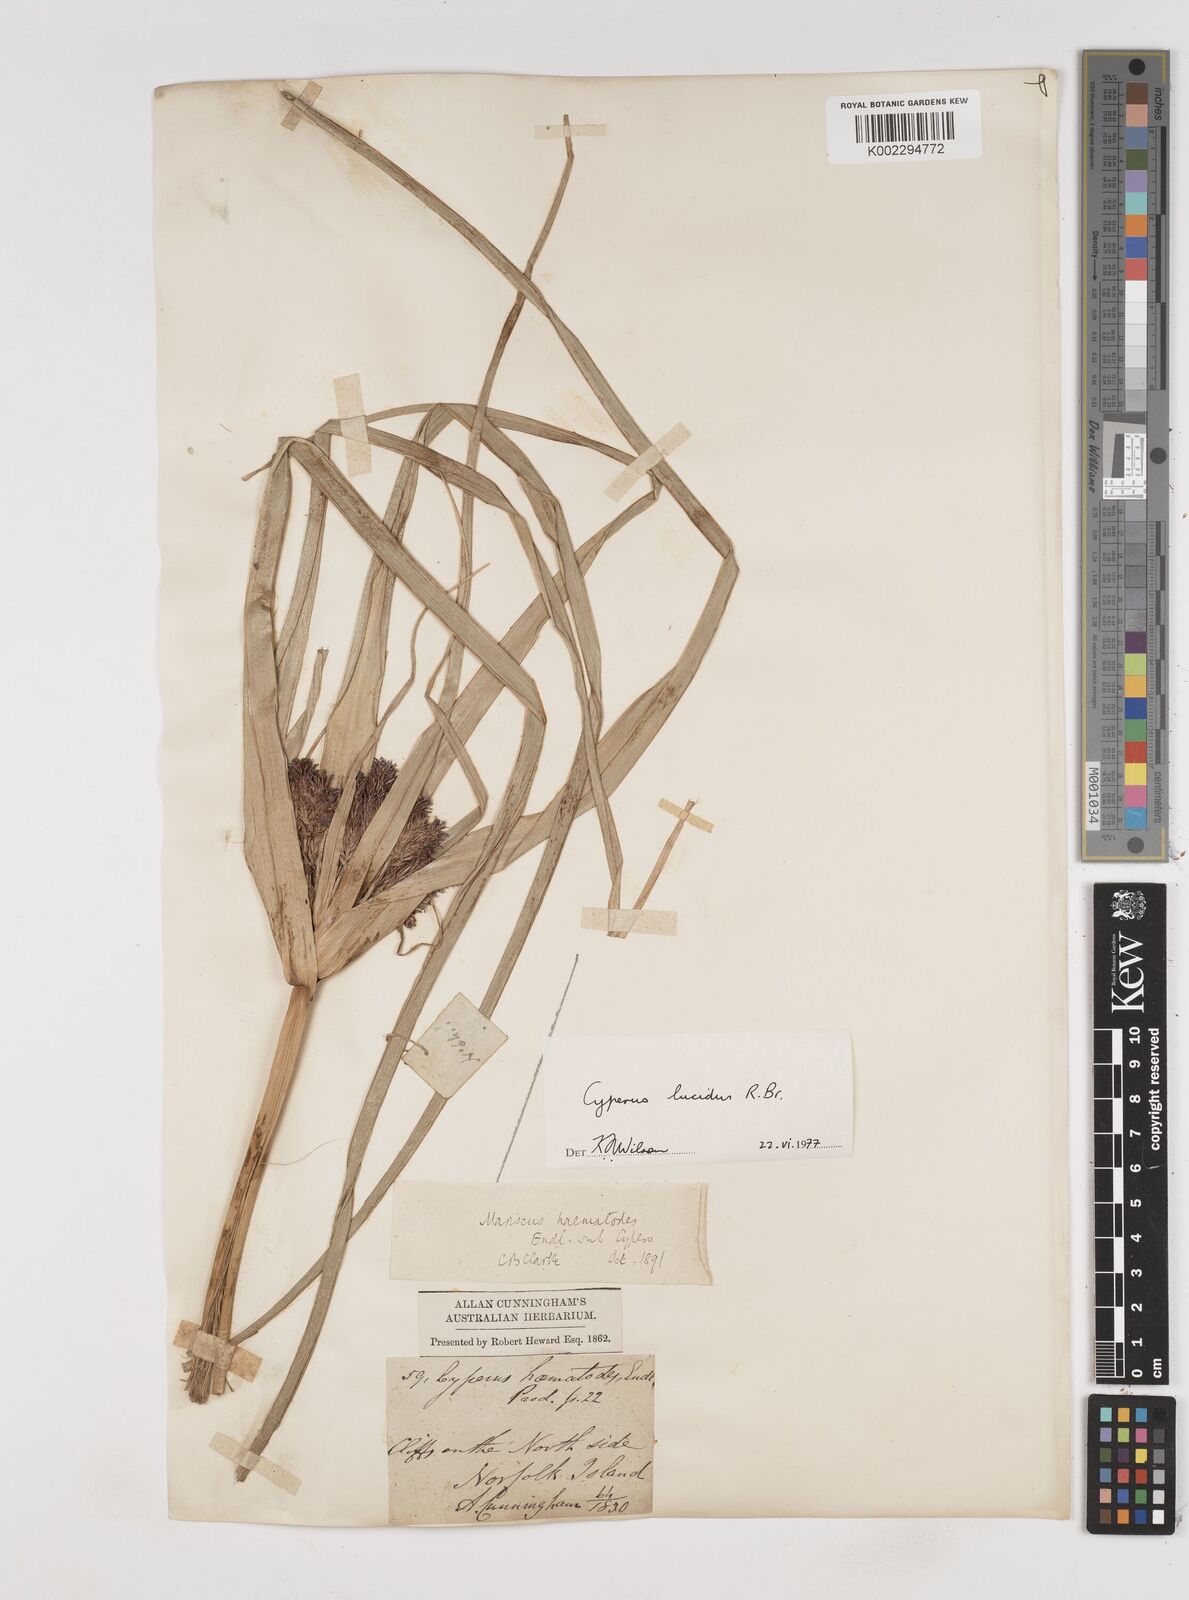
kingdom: Plantae
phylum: Tracheophyta
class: Liliopsida
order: Poales
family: Cyperaceae
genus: Cyperus
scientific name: Cyperus lucidus
